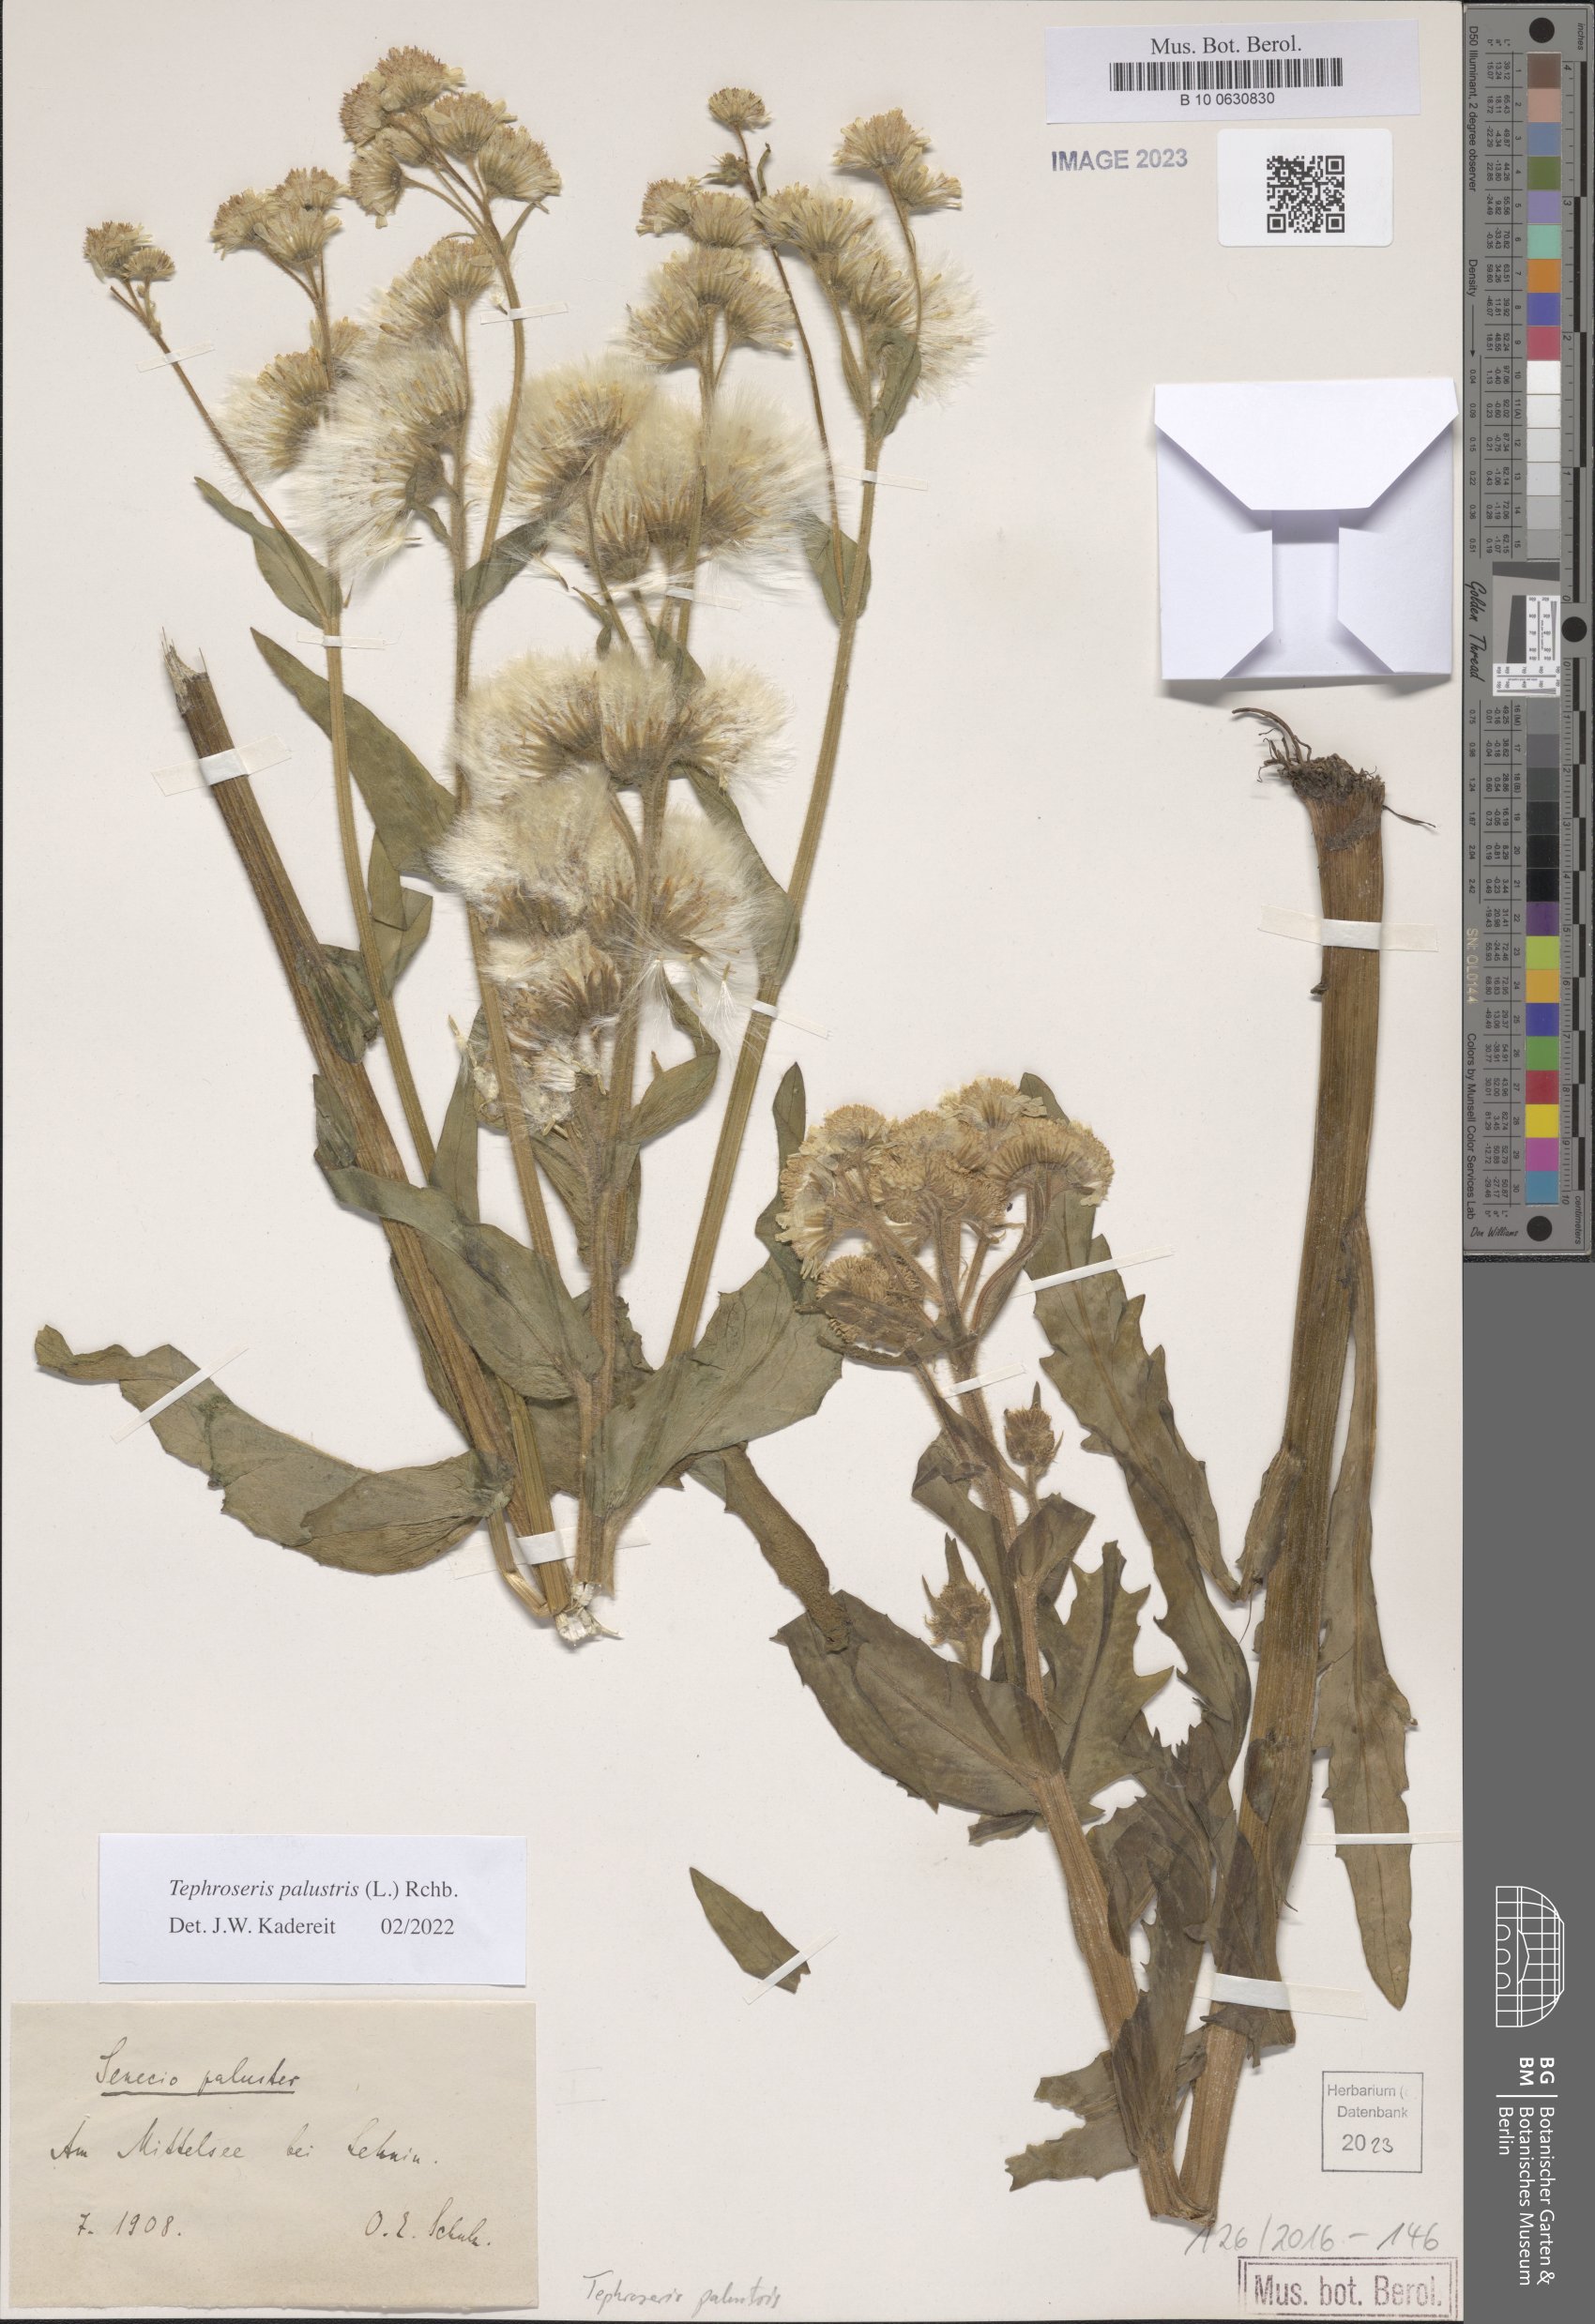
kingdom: Plantae
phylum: Tracheophyta
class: Magnoliopsida
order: Asterales
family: Asteraceae
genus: Tephroseris
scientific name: Tephroseris palustris
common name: Marsh fleawort
